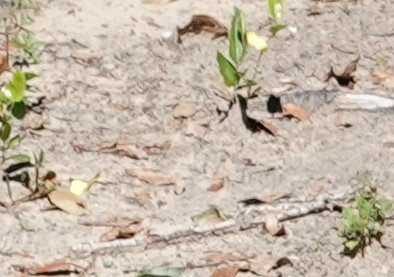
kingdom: Animalia
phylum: Arthropoda
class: Insecta
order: Lepidoptera
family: Pieridae
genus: Pyrisitia
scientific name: Pyrisitia lisa
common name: Little Yellow
